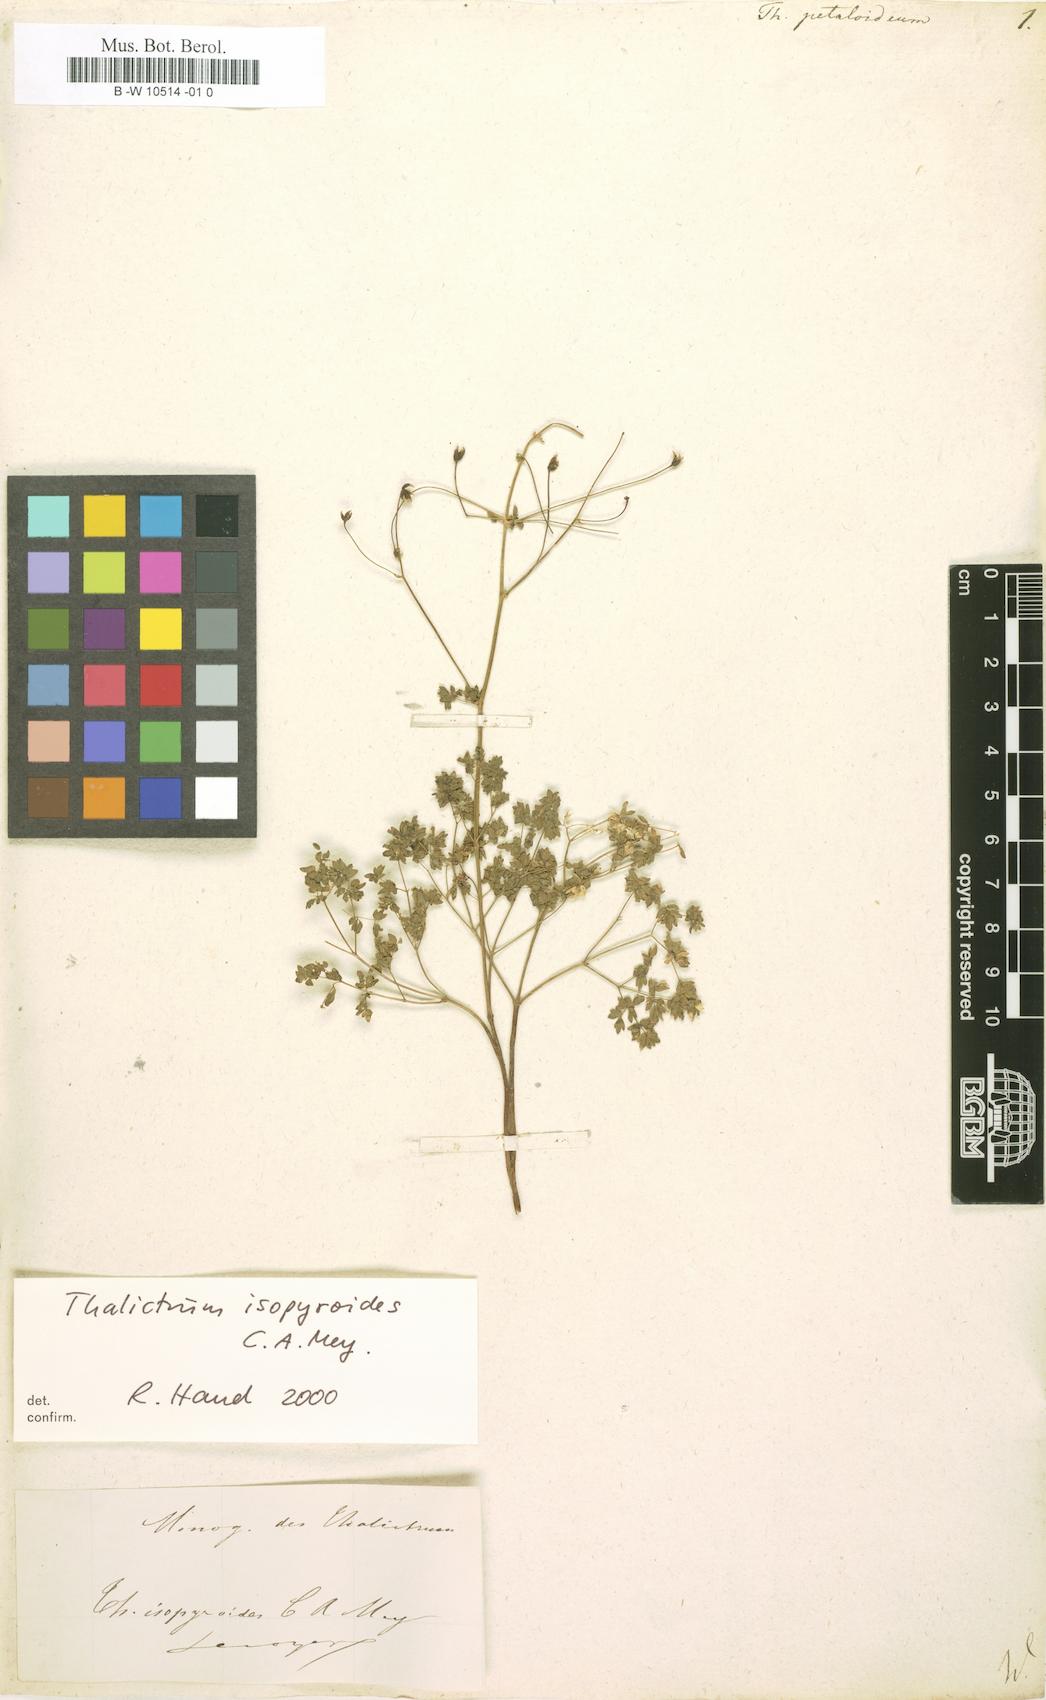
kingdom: Plantae
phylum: Tracheophyta
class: Magnoliopsida
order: Ranunculales
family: Ranunculaceae
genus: Thalictrum
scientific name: Thalictrum petaloideum
